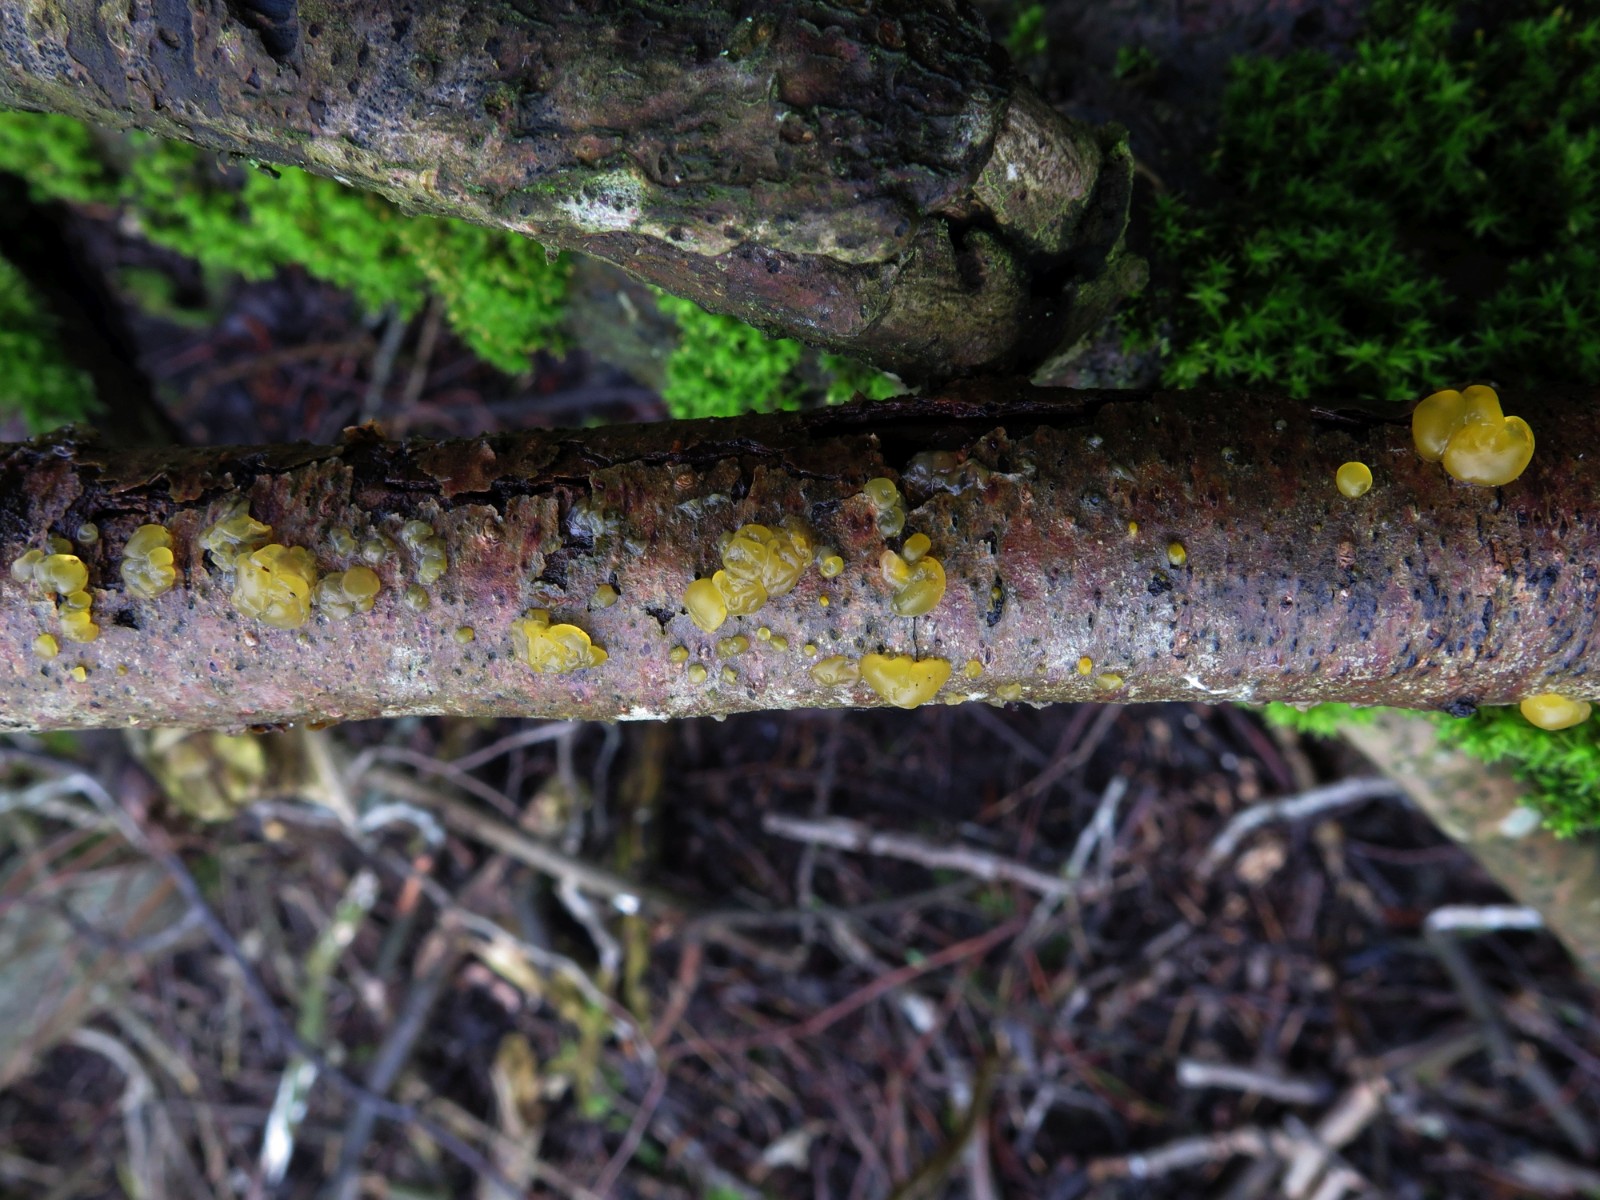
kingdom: Fungi
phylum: Basidiomycota
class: Dacrymycetes
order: Dacrymycetales
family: Dacrymycetaceae
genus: Dacrymyces
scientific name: Dacrymyces stillatus
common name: almindelig tåresvamp
